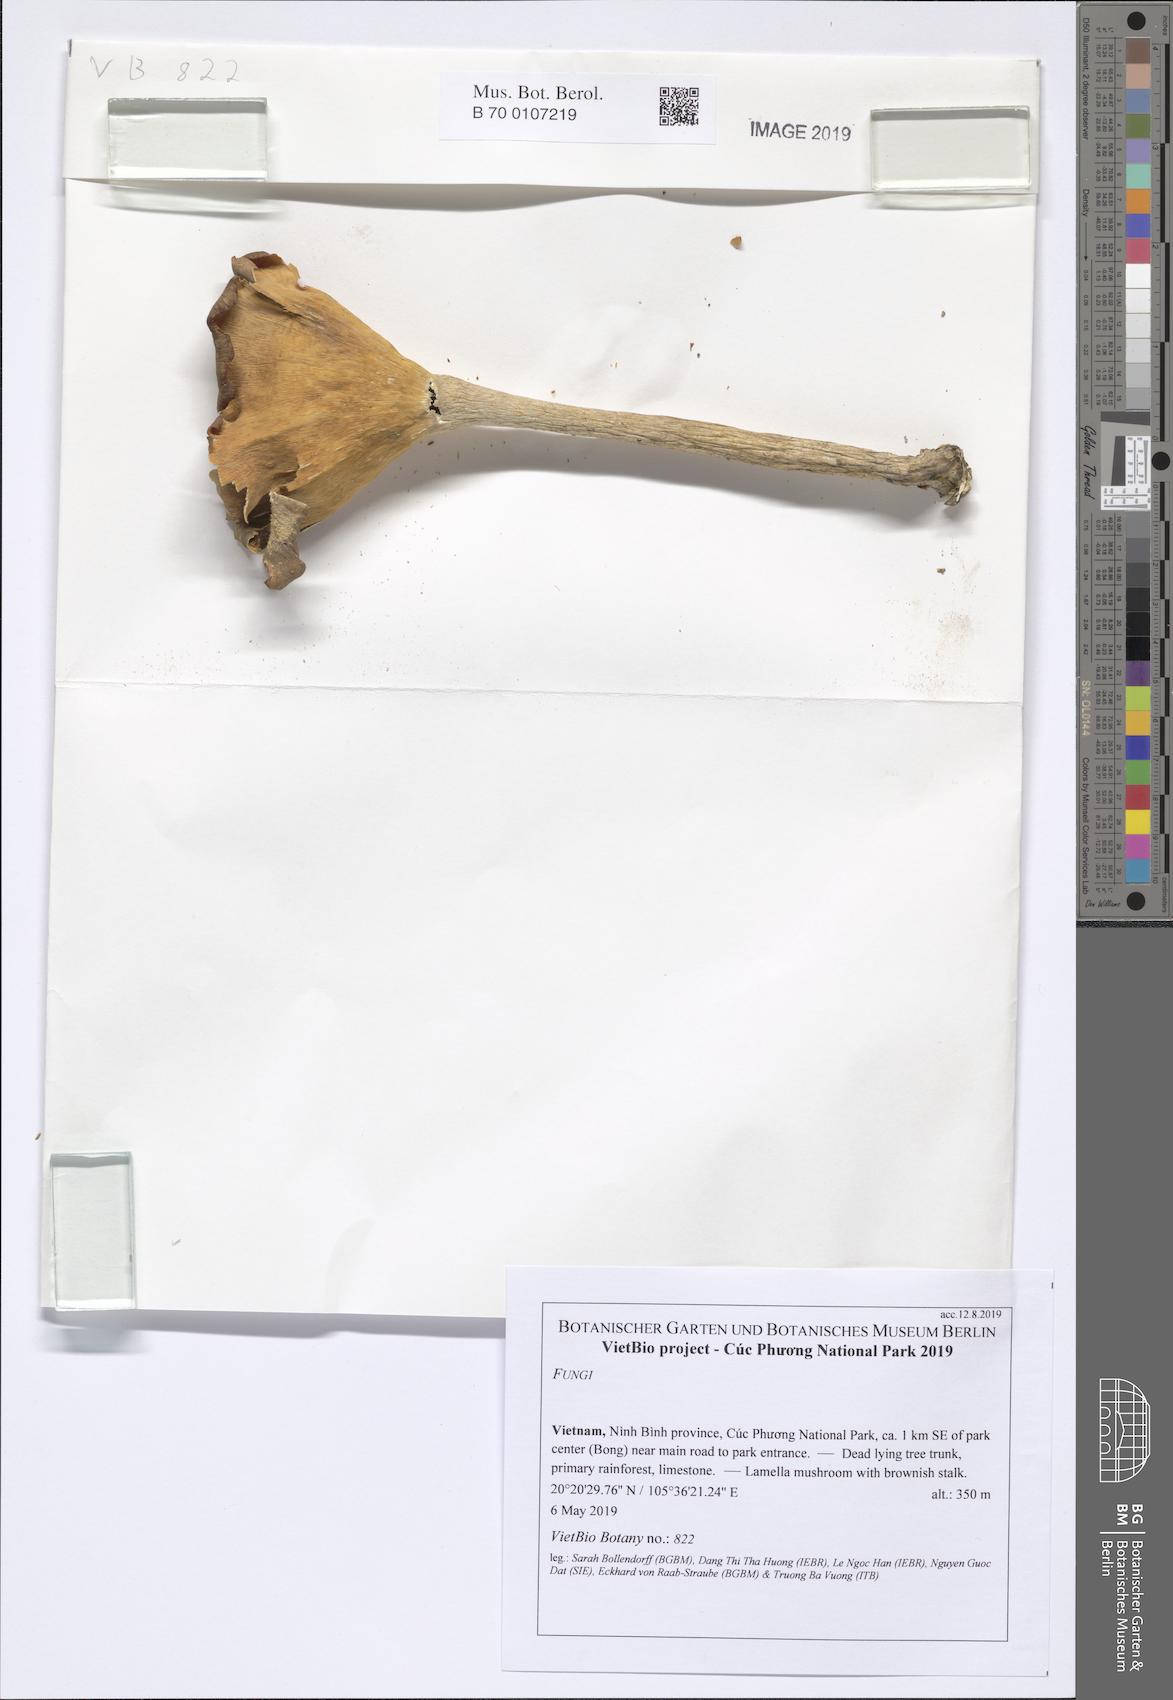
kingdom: Fungi
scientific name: Fungi
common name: Fungi
